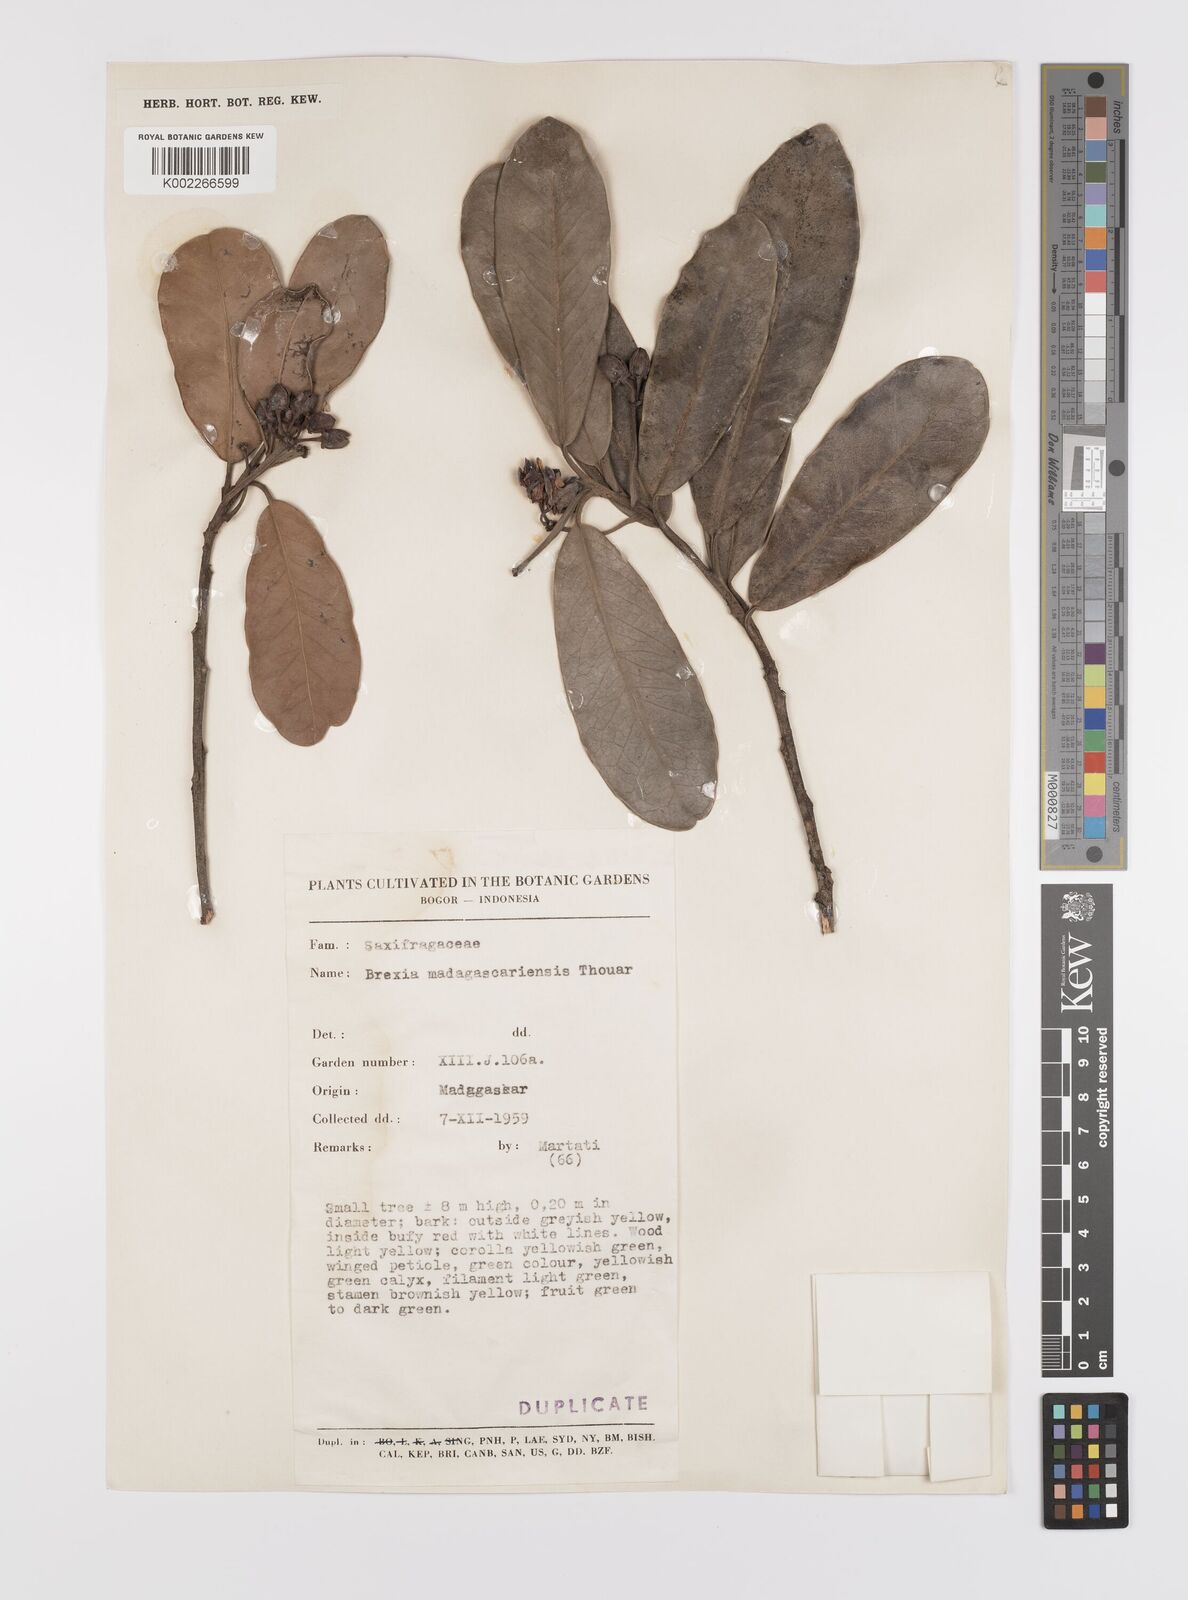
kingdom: Plantae
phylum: Tracheophyta
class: Magnoliopsida
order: Celastrales
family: Celastraceae
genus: Brexia
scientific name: Brexia madagascariensis
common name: Brexia
